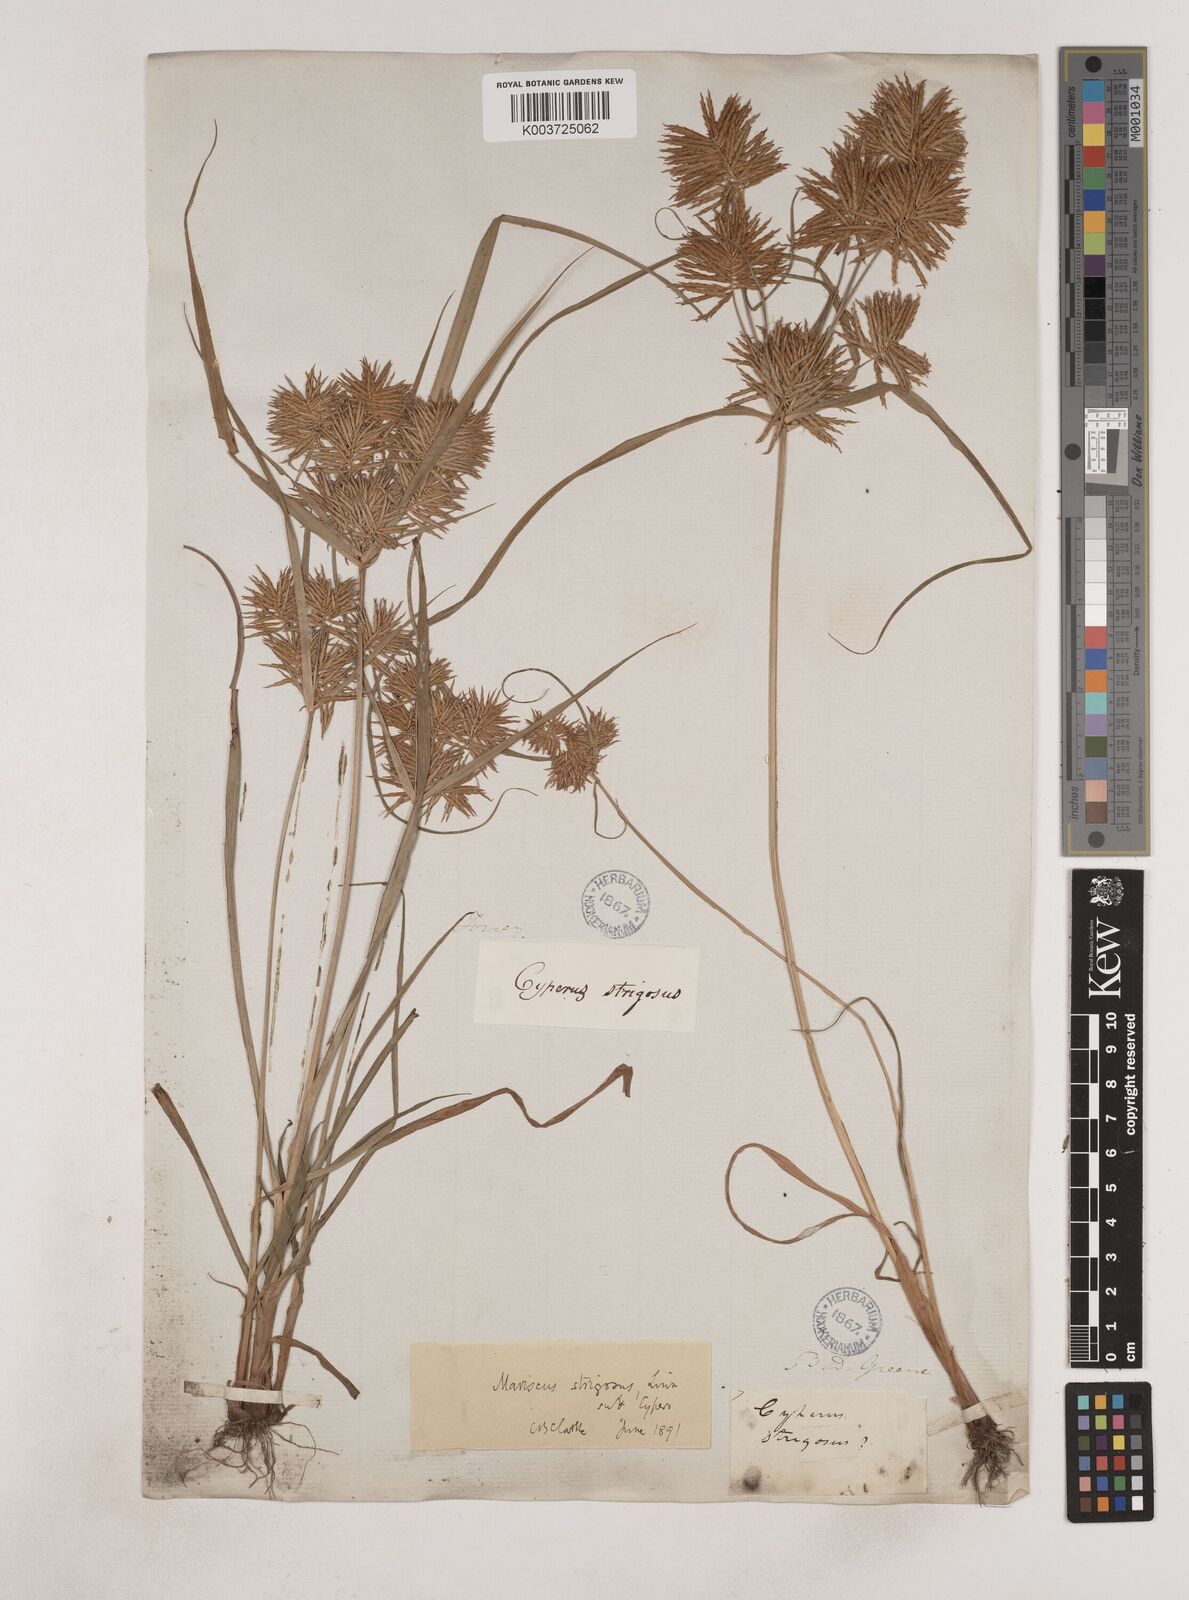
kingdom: Plantae
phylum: Tracheophyta
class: Liliopsida
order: Poales
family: Cyperaceae
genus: Cyperus
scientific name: Cyperus strigosus
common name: False nutsedge
